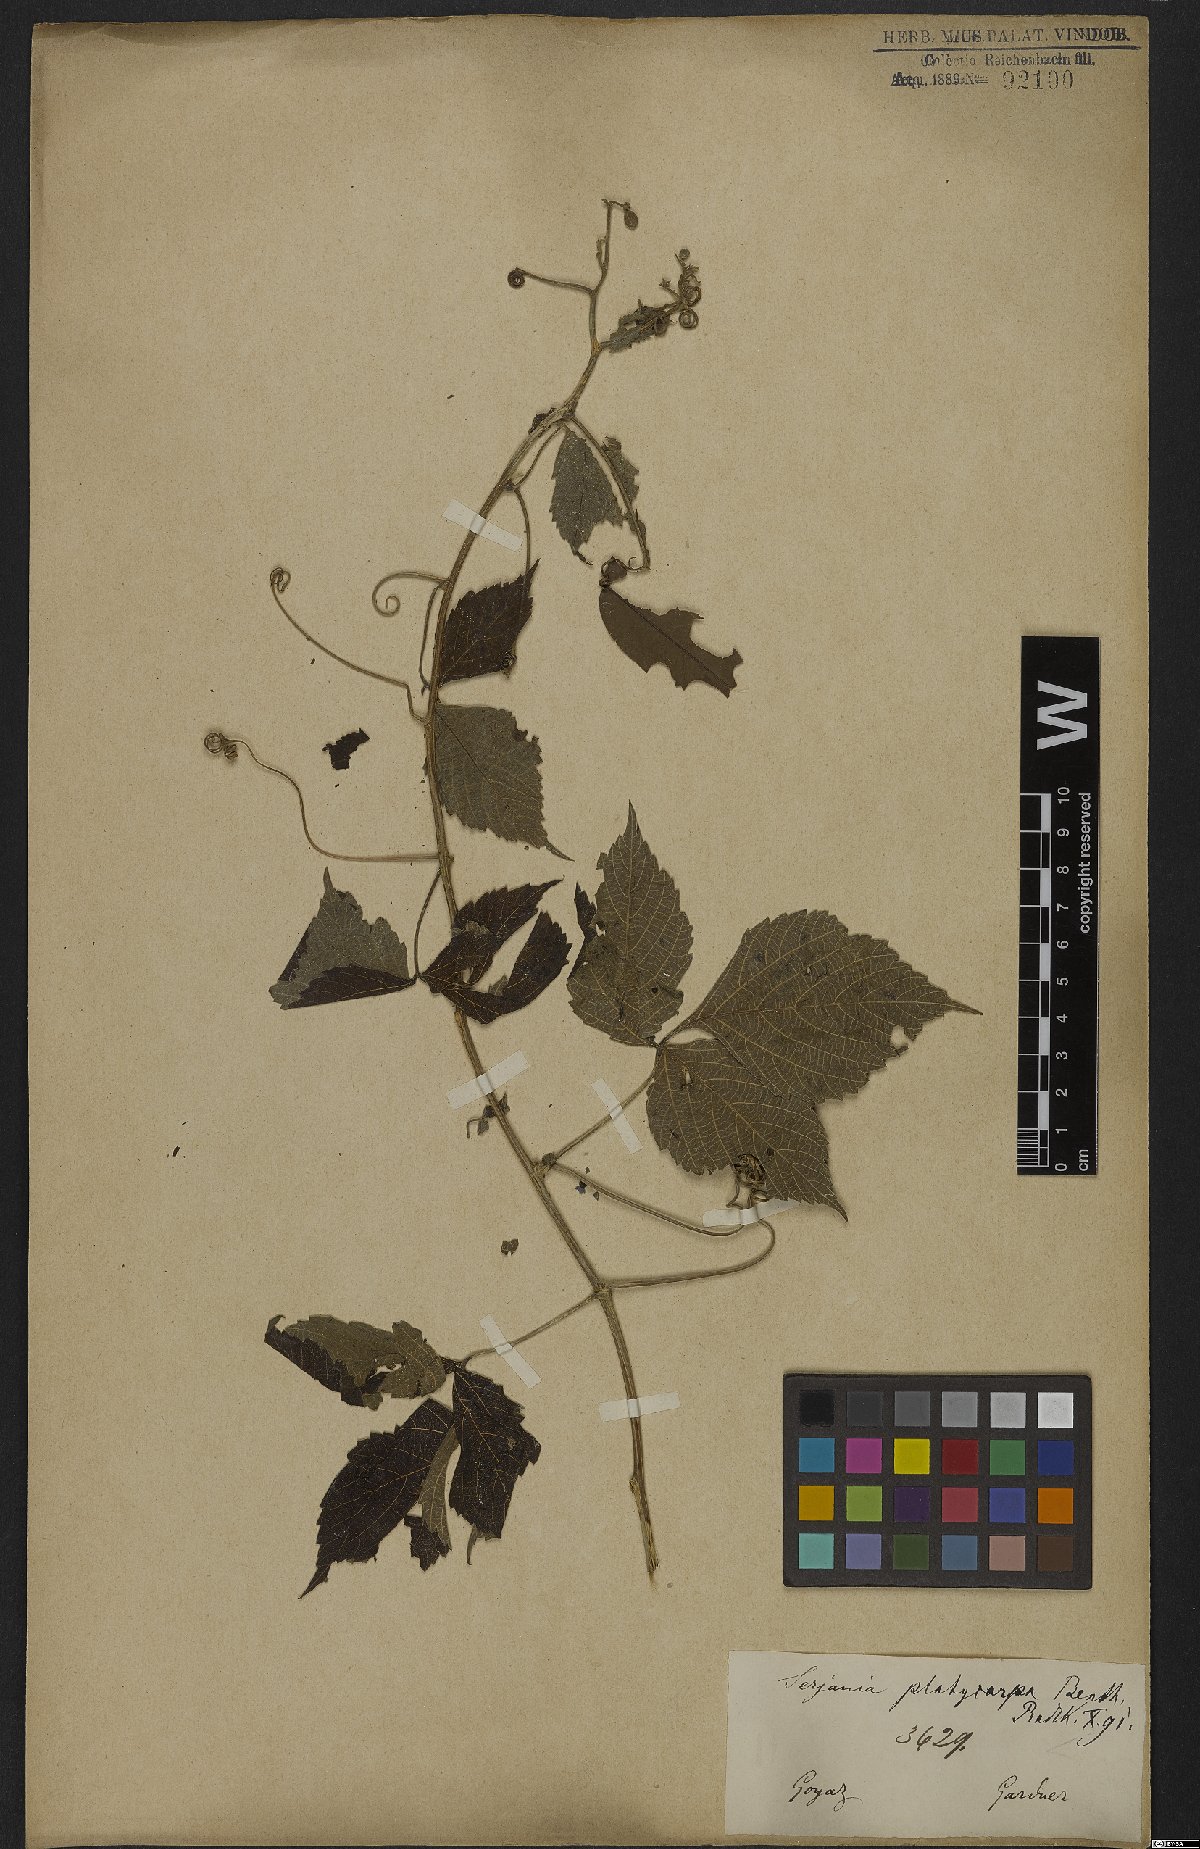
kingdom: Plantae
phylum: Tracheophyta
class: Magnoliopsida
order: Sapindales
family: Sapindaceae
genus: Serjania
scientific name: Serjania platycarpa
